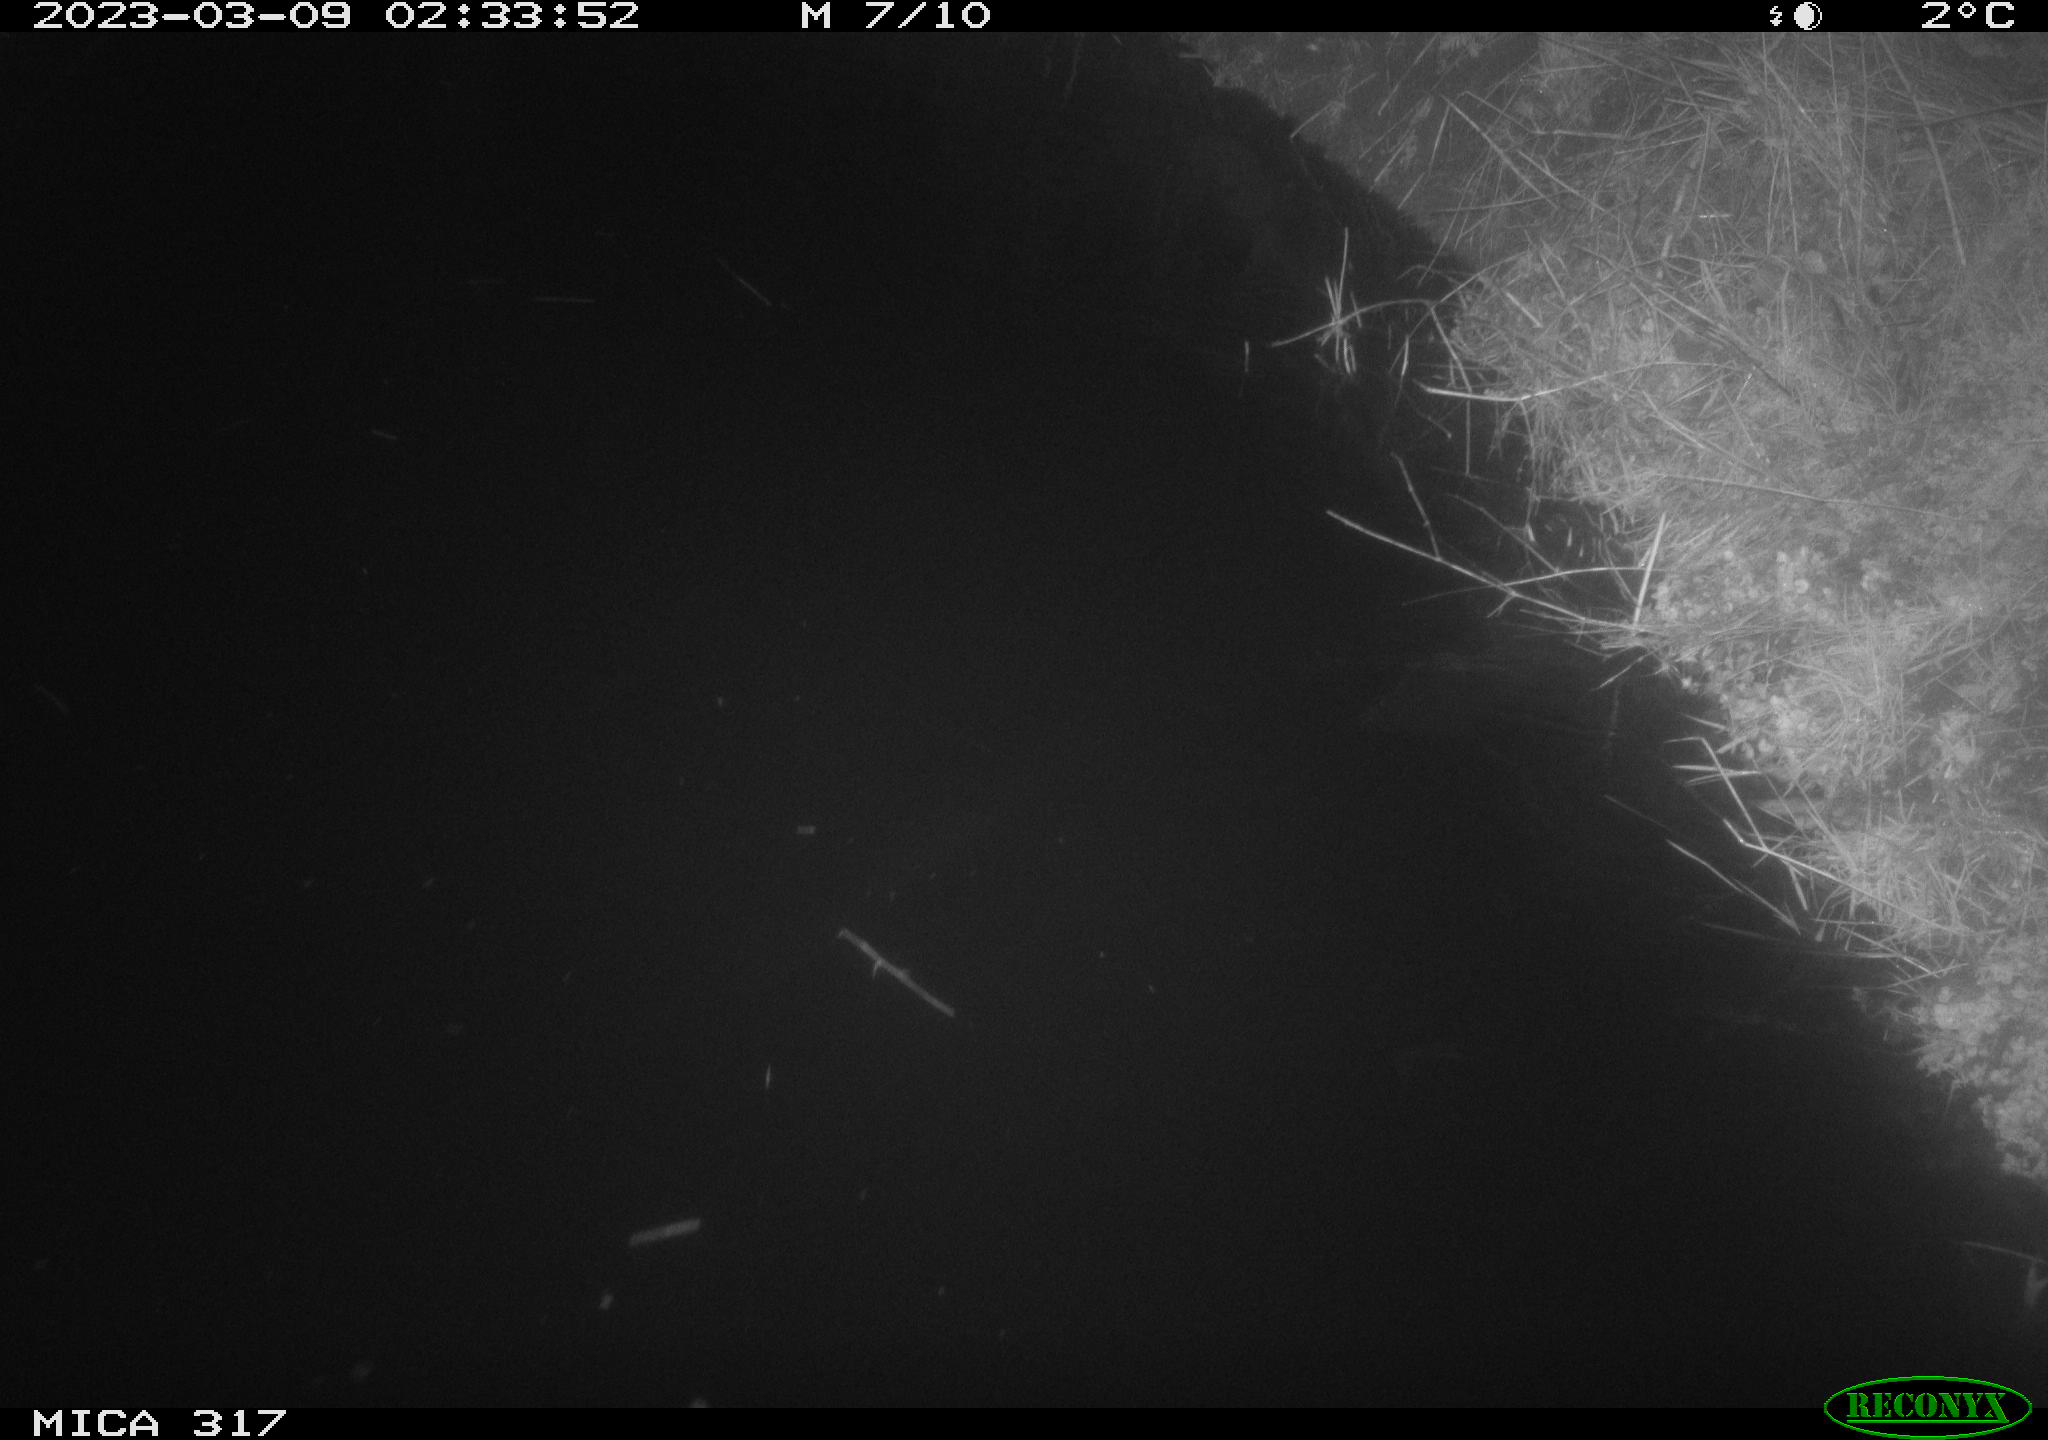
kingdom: Animalia
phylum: Chordata
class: Mammalia
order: Rodentia
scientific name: Rodentia
